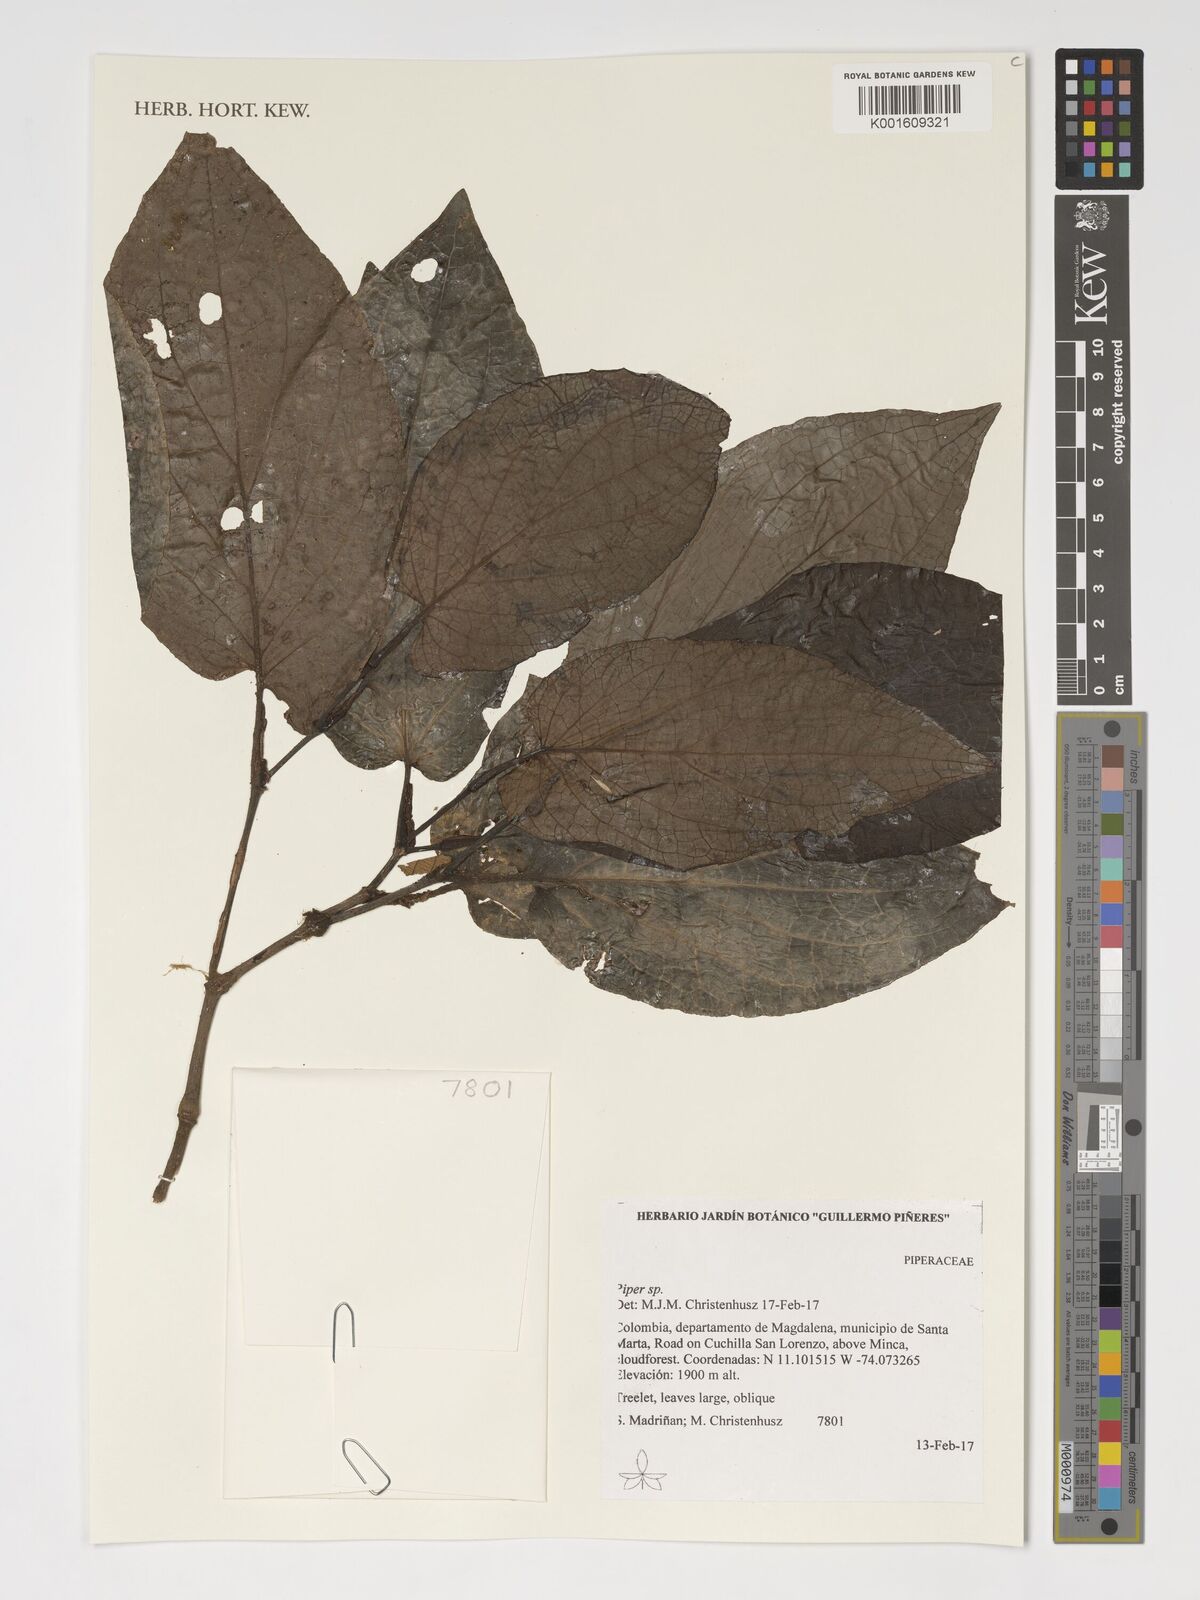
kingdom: Plantae
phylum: Tracheophyta
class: Magnoliopsida
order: Piperales
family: Piperaceae
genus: Piper
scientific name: Piper
